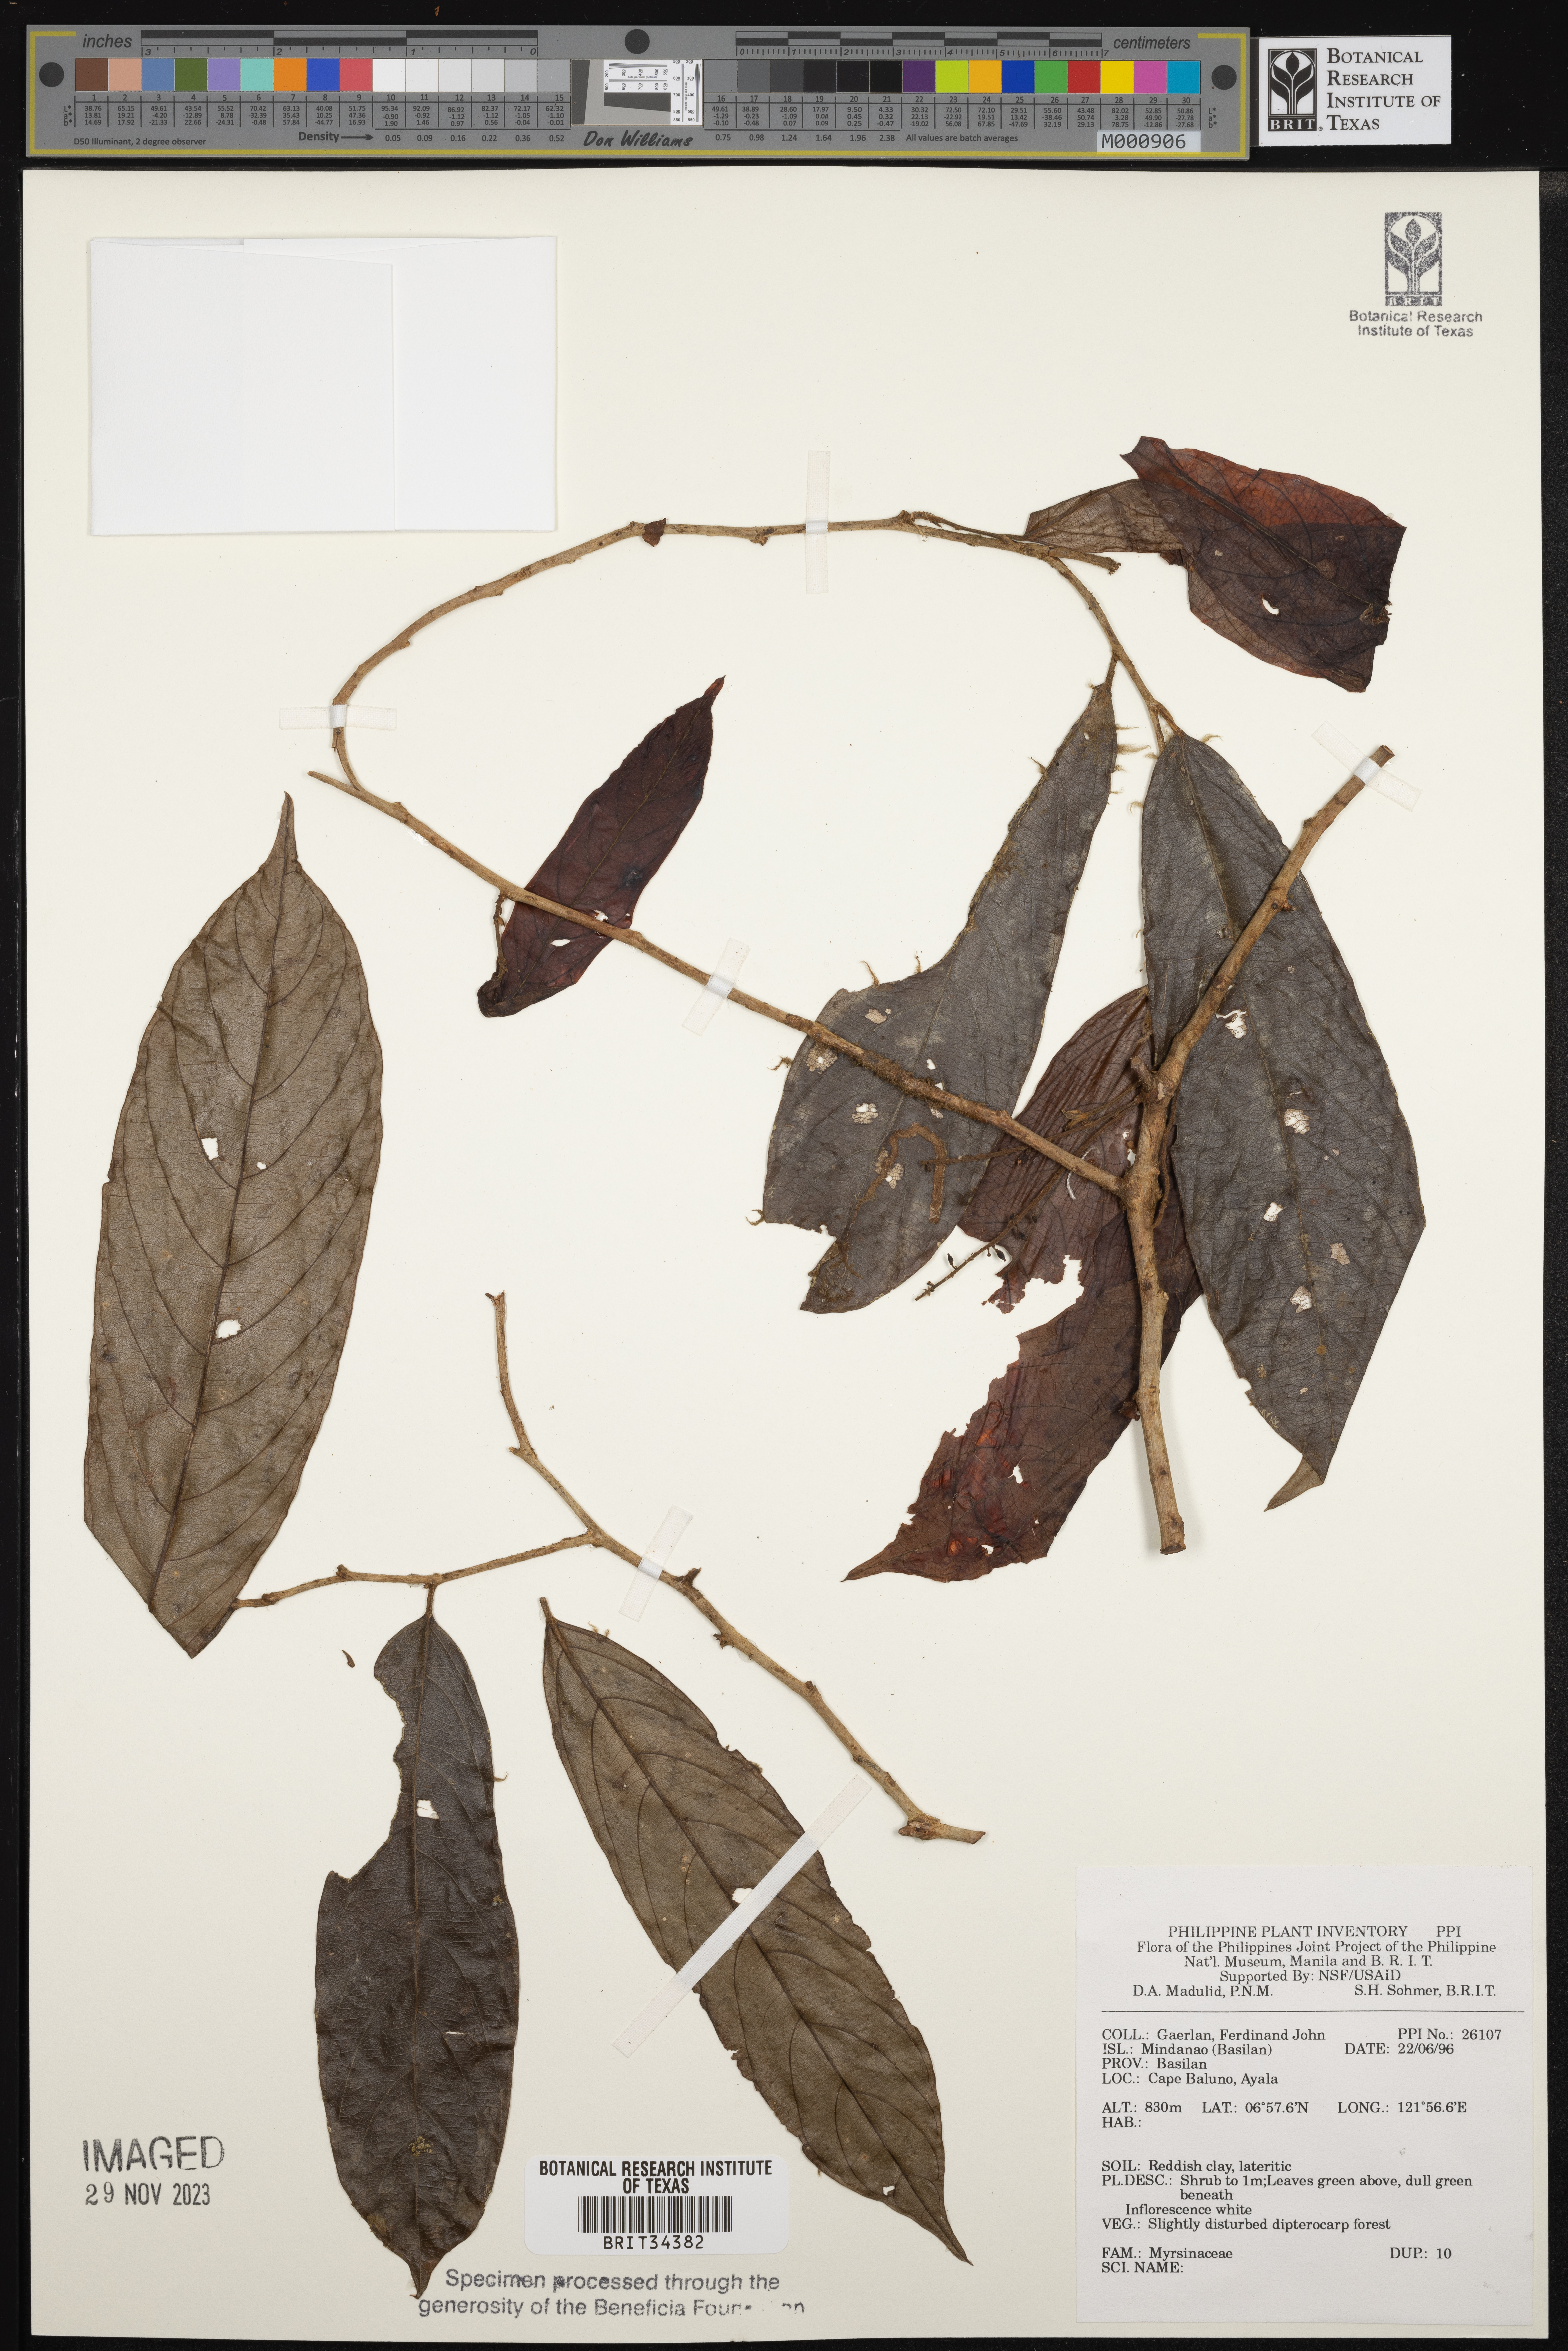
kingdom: Plantae
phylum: Tracheophyta
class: Magnoliopsida
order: Ericales
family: Primulaceae
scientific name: Primulaceae
